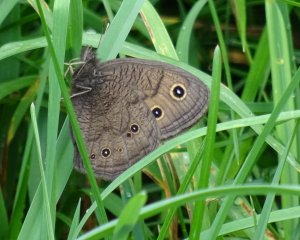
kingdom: Animalia
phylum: Arthropoda
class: Insecta
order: Lepidoptera
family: Nymphalidae
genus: Cercyonis
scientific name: Cercyonis pegala
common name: Common Wood-Nymph
